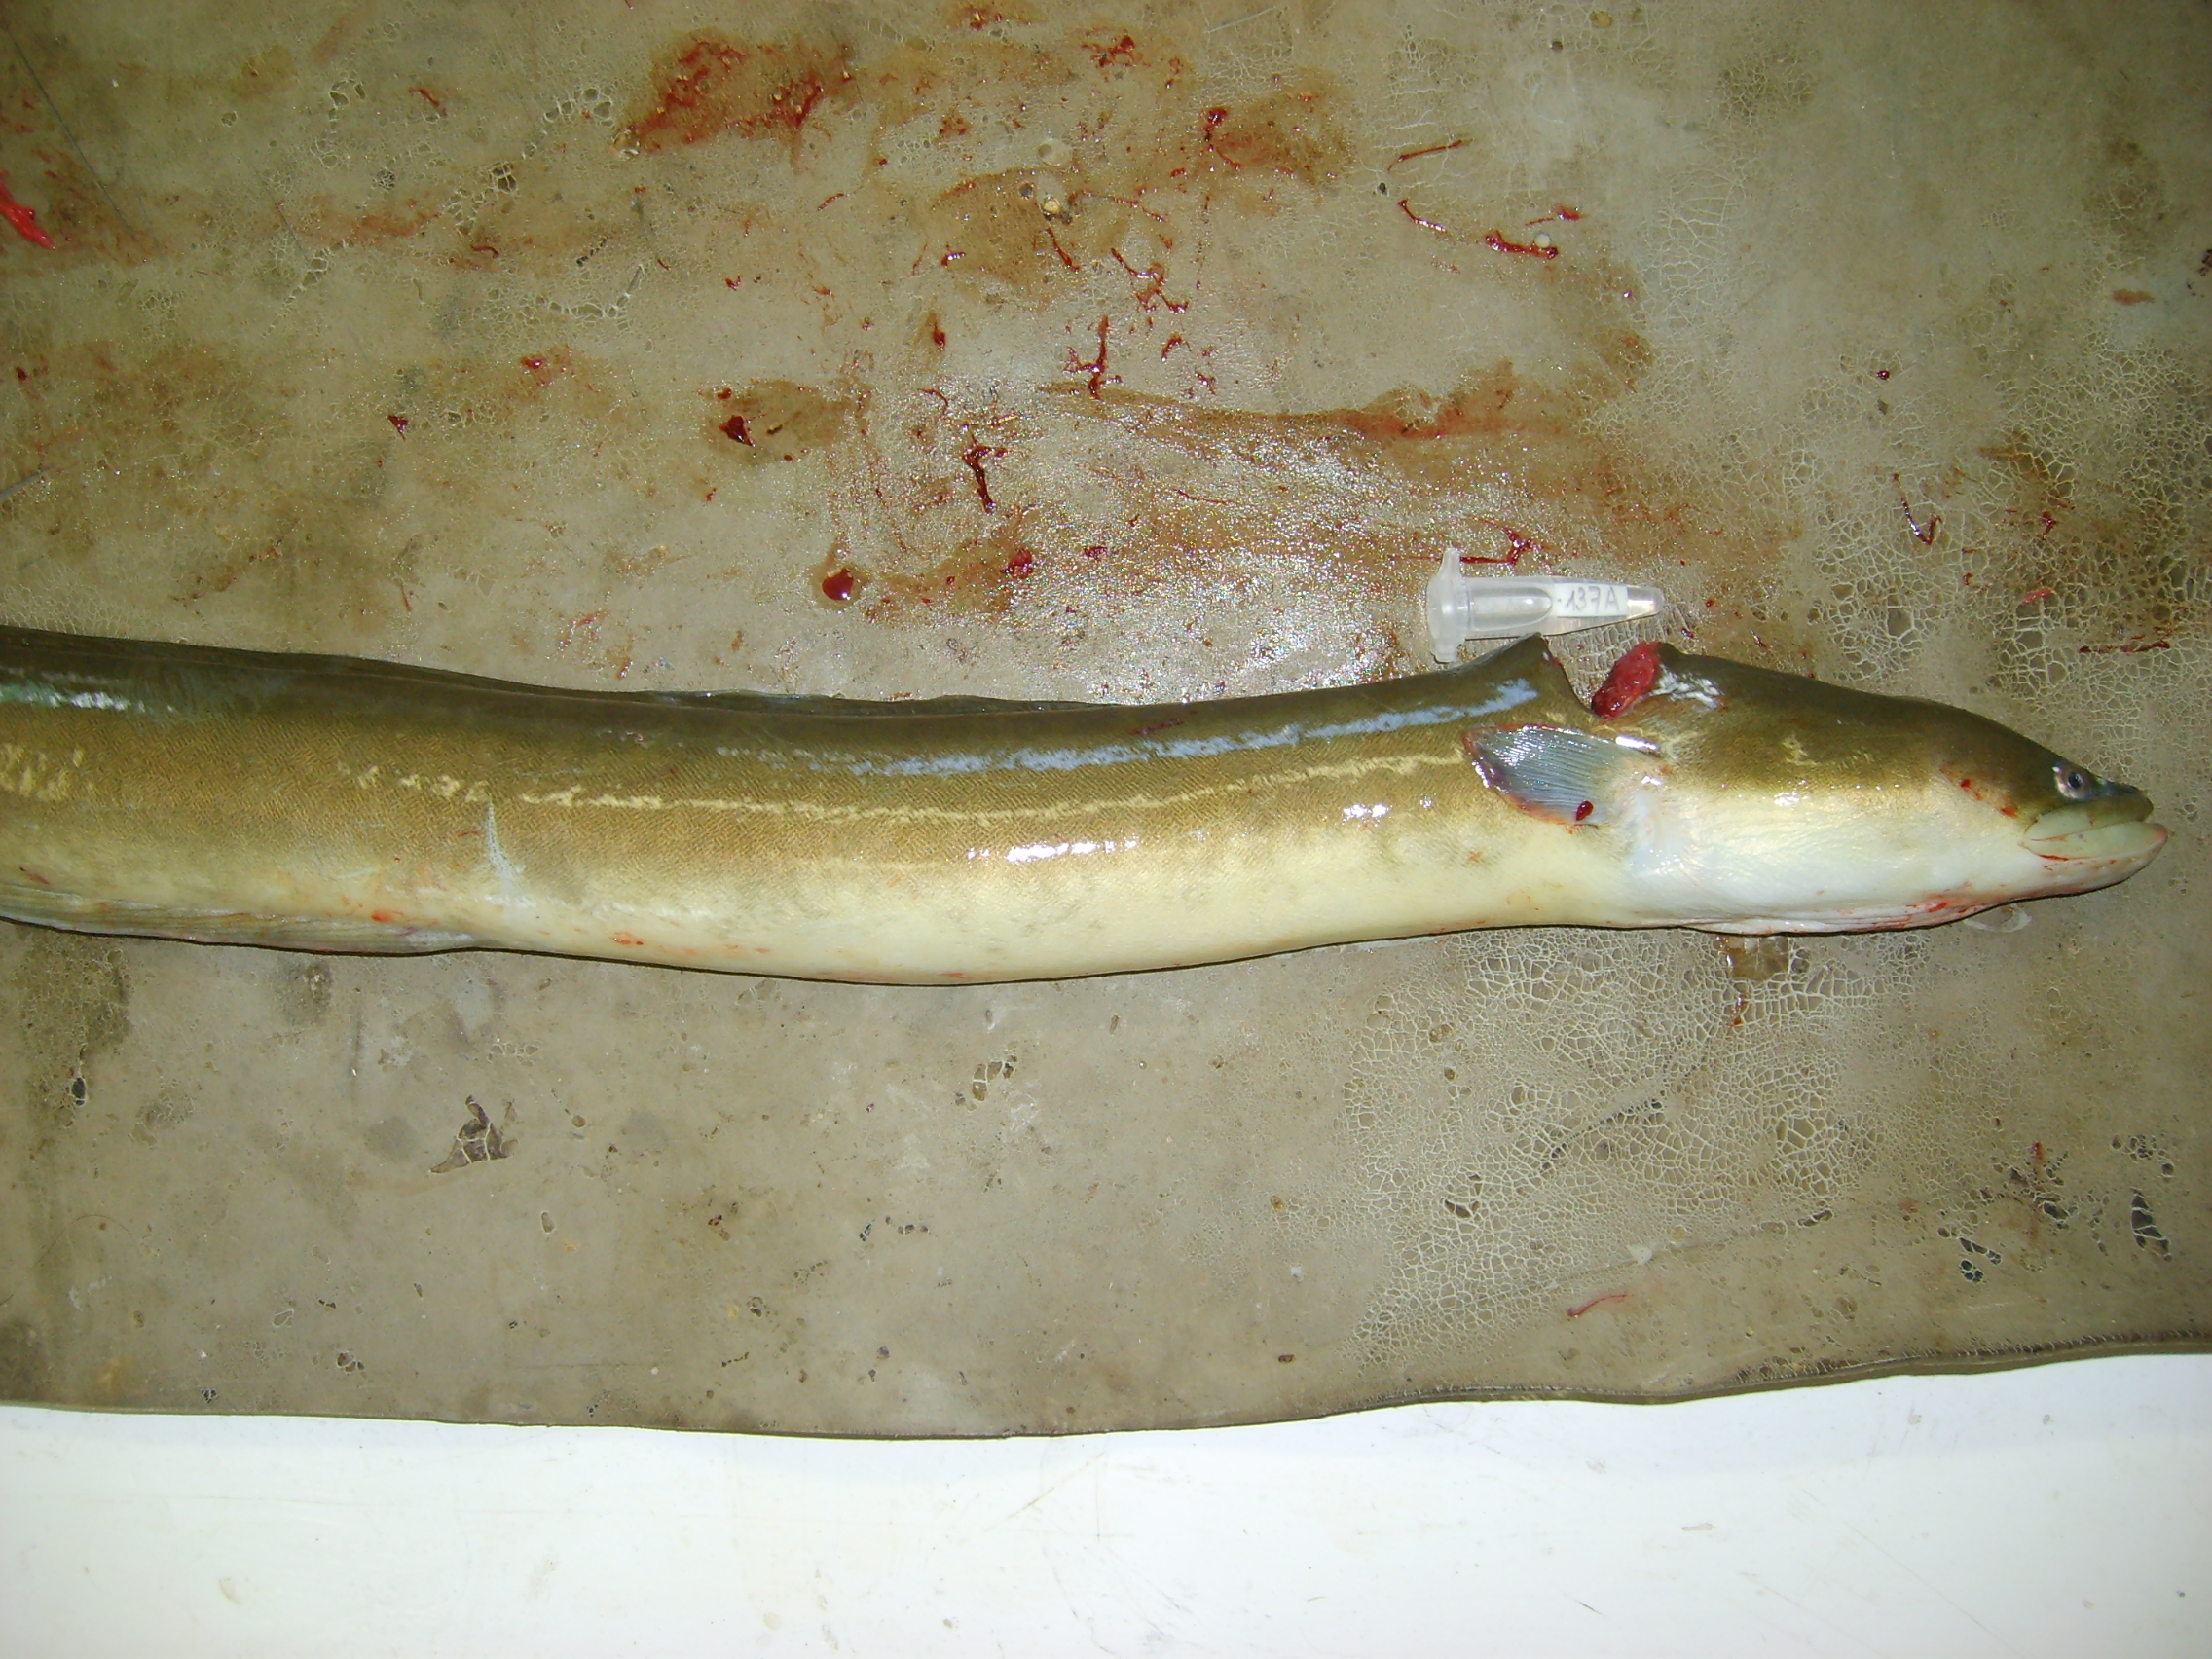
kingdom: Animalia
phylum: Chordata
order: Anguilliformes
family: Anguillidae
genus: Anguilla
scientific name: Anguilla mossambica
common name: African longfin eel
